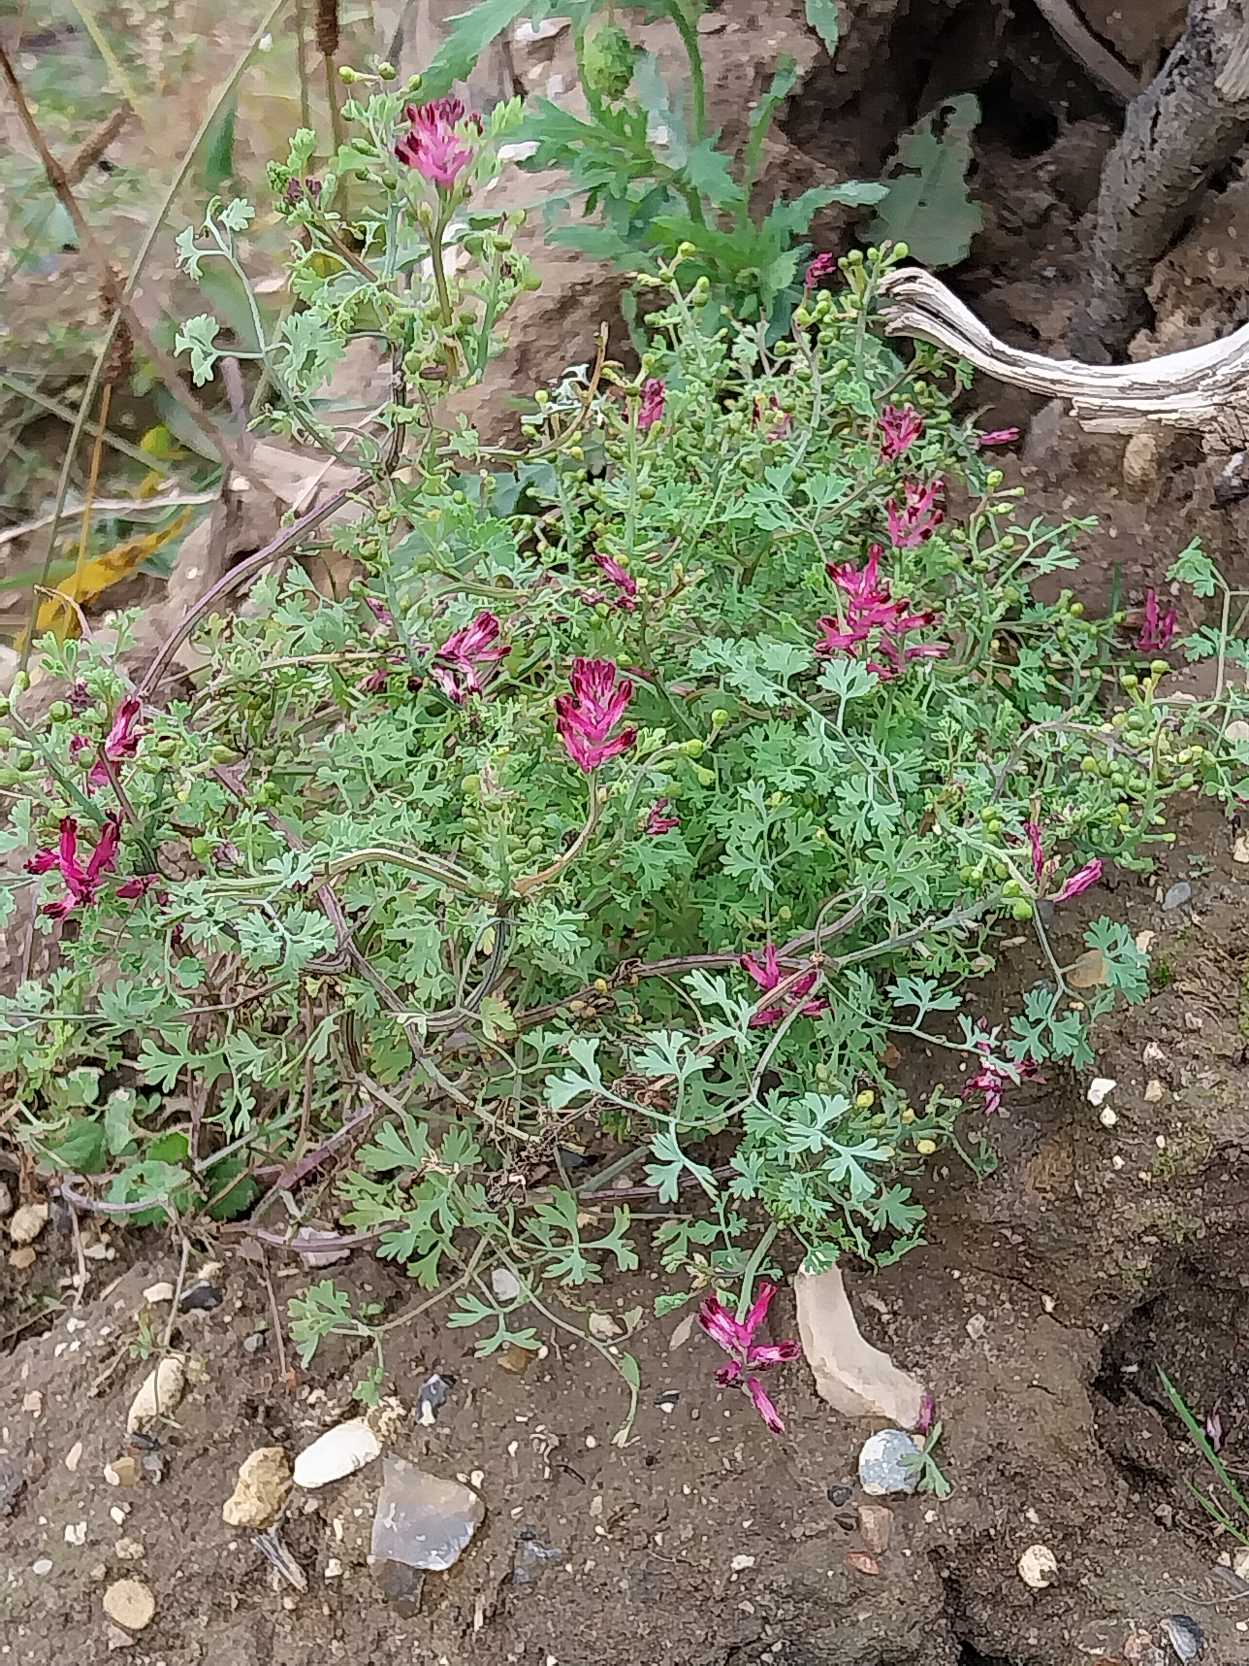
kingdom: Plantae
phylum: Tracheophyta
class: Magnoliopsida
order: Ranunculales
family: Papaveraceae
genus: Fumaria
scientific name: Fumaria officinalis
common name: Læge-jordrøg
